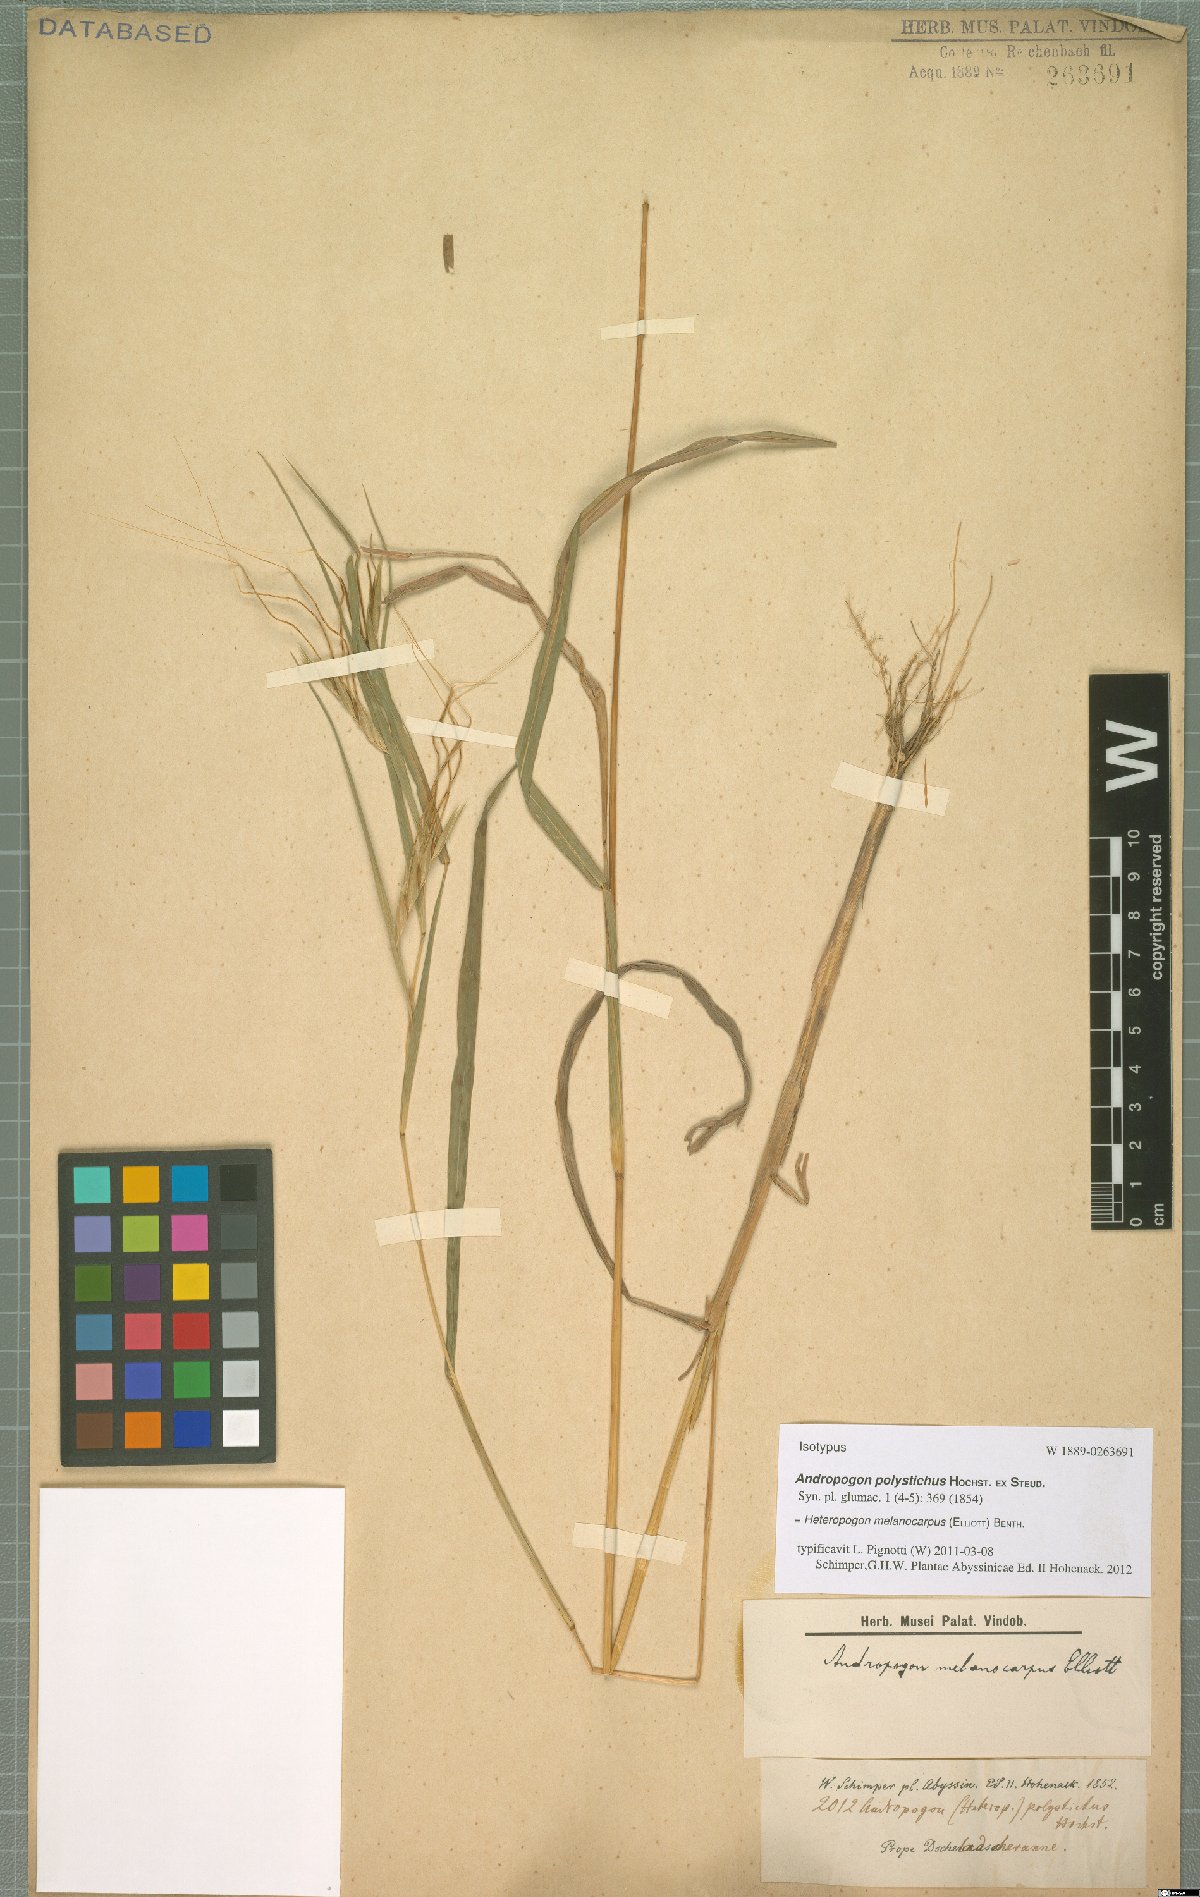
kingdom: Plantae
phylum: Tracheophyta
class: Liliopsida
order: Poales
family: Poaceae
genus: Heteropogon
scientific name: Heteropogon melanocarpus
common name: Sweet tanglehead
